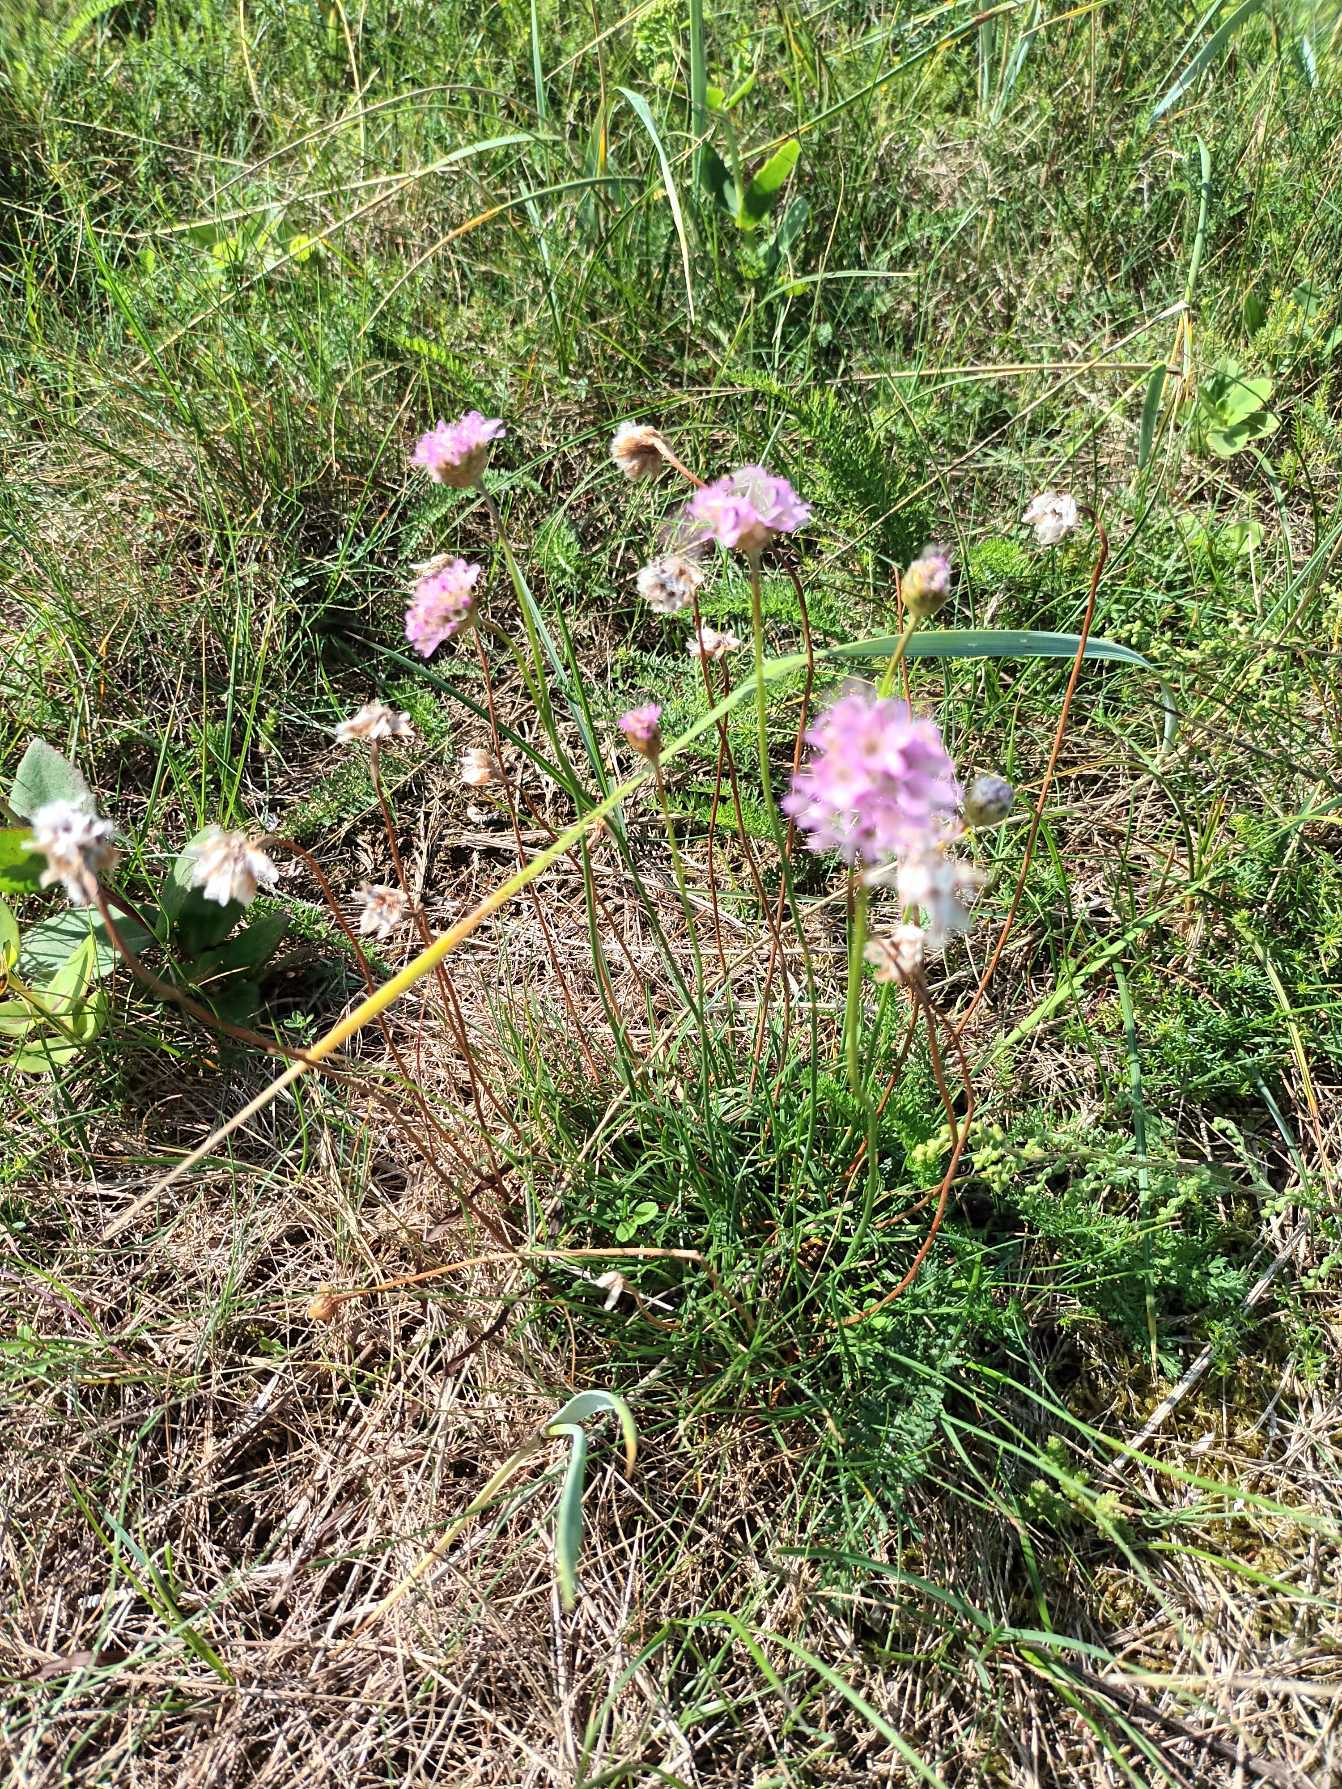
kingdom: Plantae
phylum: Tracheophyta
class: Magnoliopsida
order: Caryophyllales
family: Plumbaginaceae
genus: Armeria
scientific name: Armeria maritima
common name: Engelskgræs
